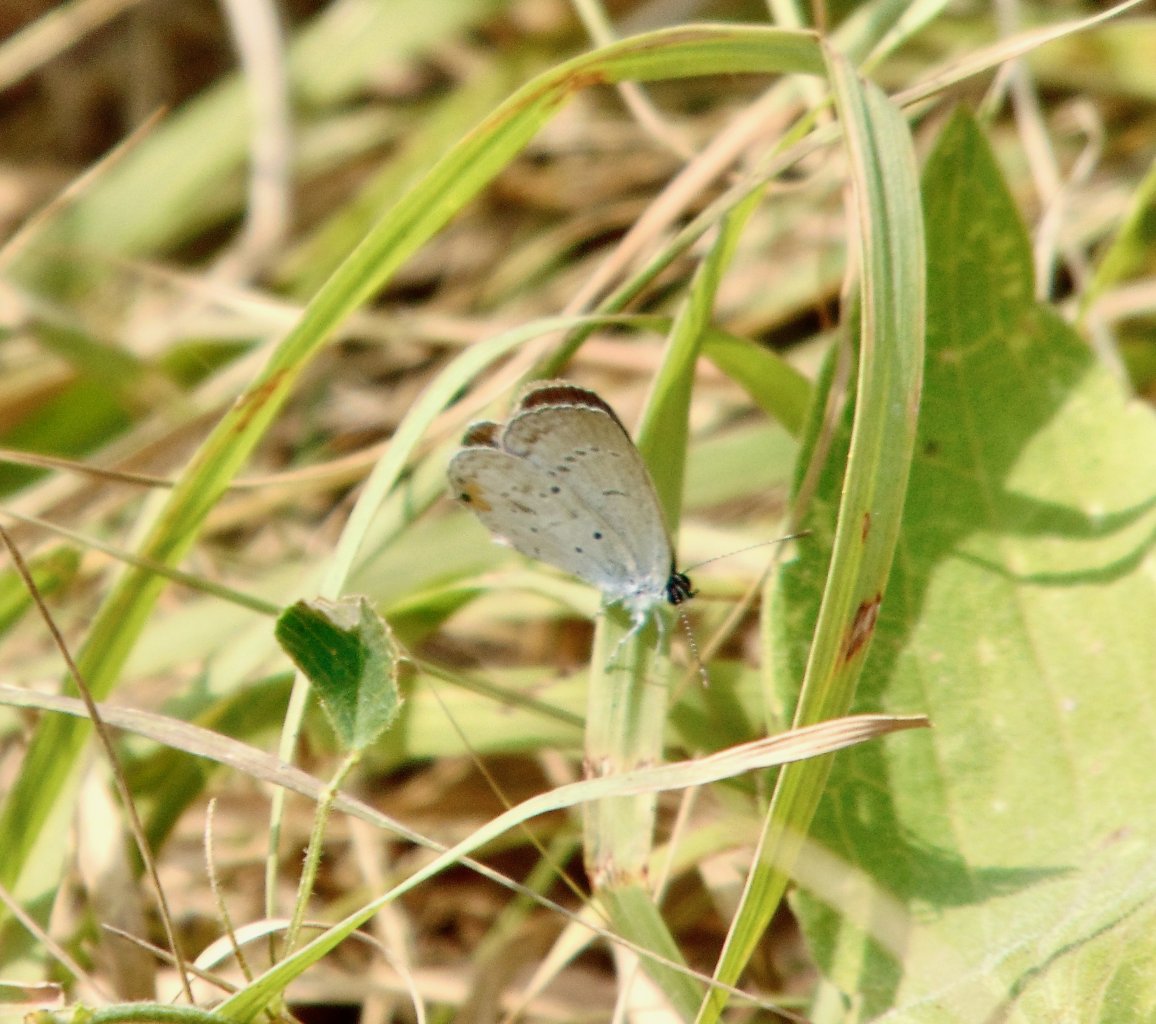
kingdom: Animalia
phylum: Arthropoda
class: Insecta
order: Lepidoptera
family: Lycaenidae
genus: Elkalyce
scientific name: Elkalyce comyntas
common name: Eastern Tailed-Blue
